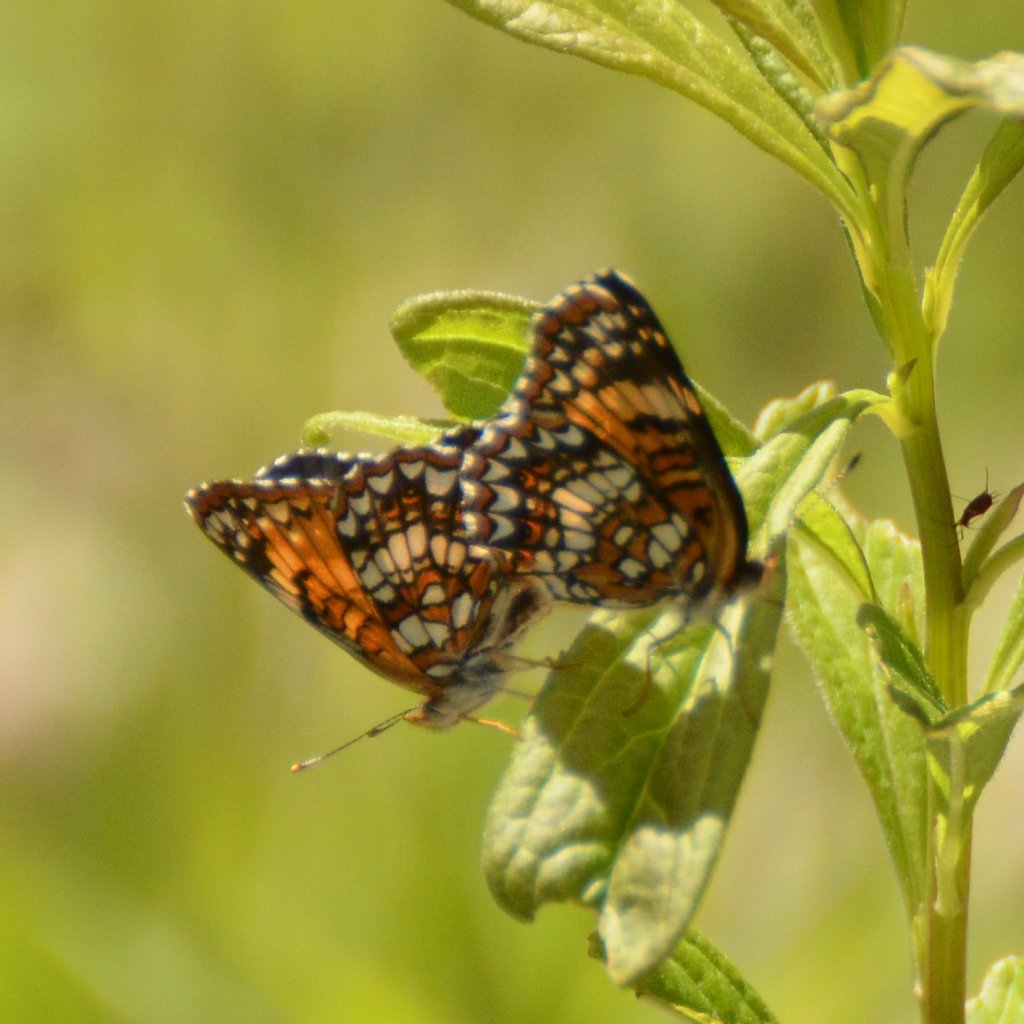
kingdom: Animalia
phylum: Arthropoda
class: Insecta
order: Lepidoptera
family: Nymphalidae
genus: Chlosyne
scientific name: Chlosyne harrisii
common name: Harris's Checkerspot
